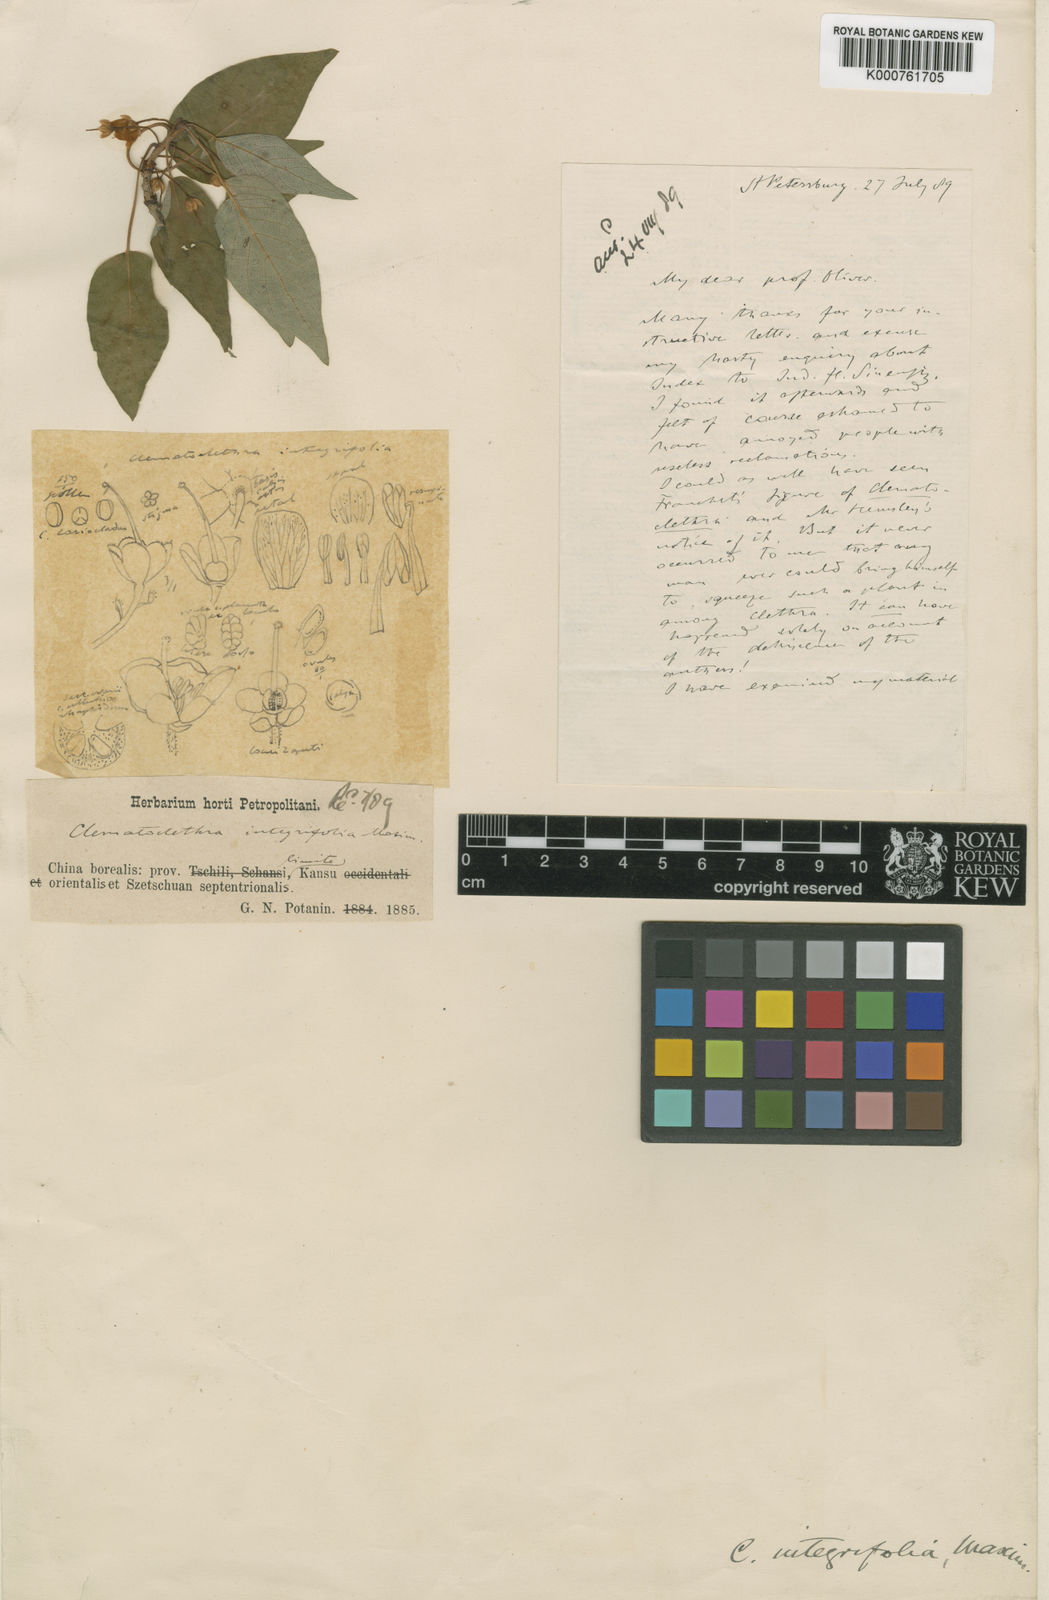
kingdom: Plantae
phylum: Tracheophyta
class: Magnoliopsida
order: Ericales
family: Actinidiaceae
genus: Clematoclethra
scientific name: Clematoclethra scandens
